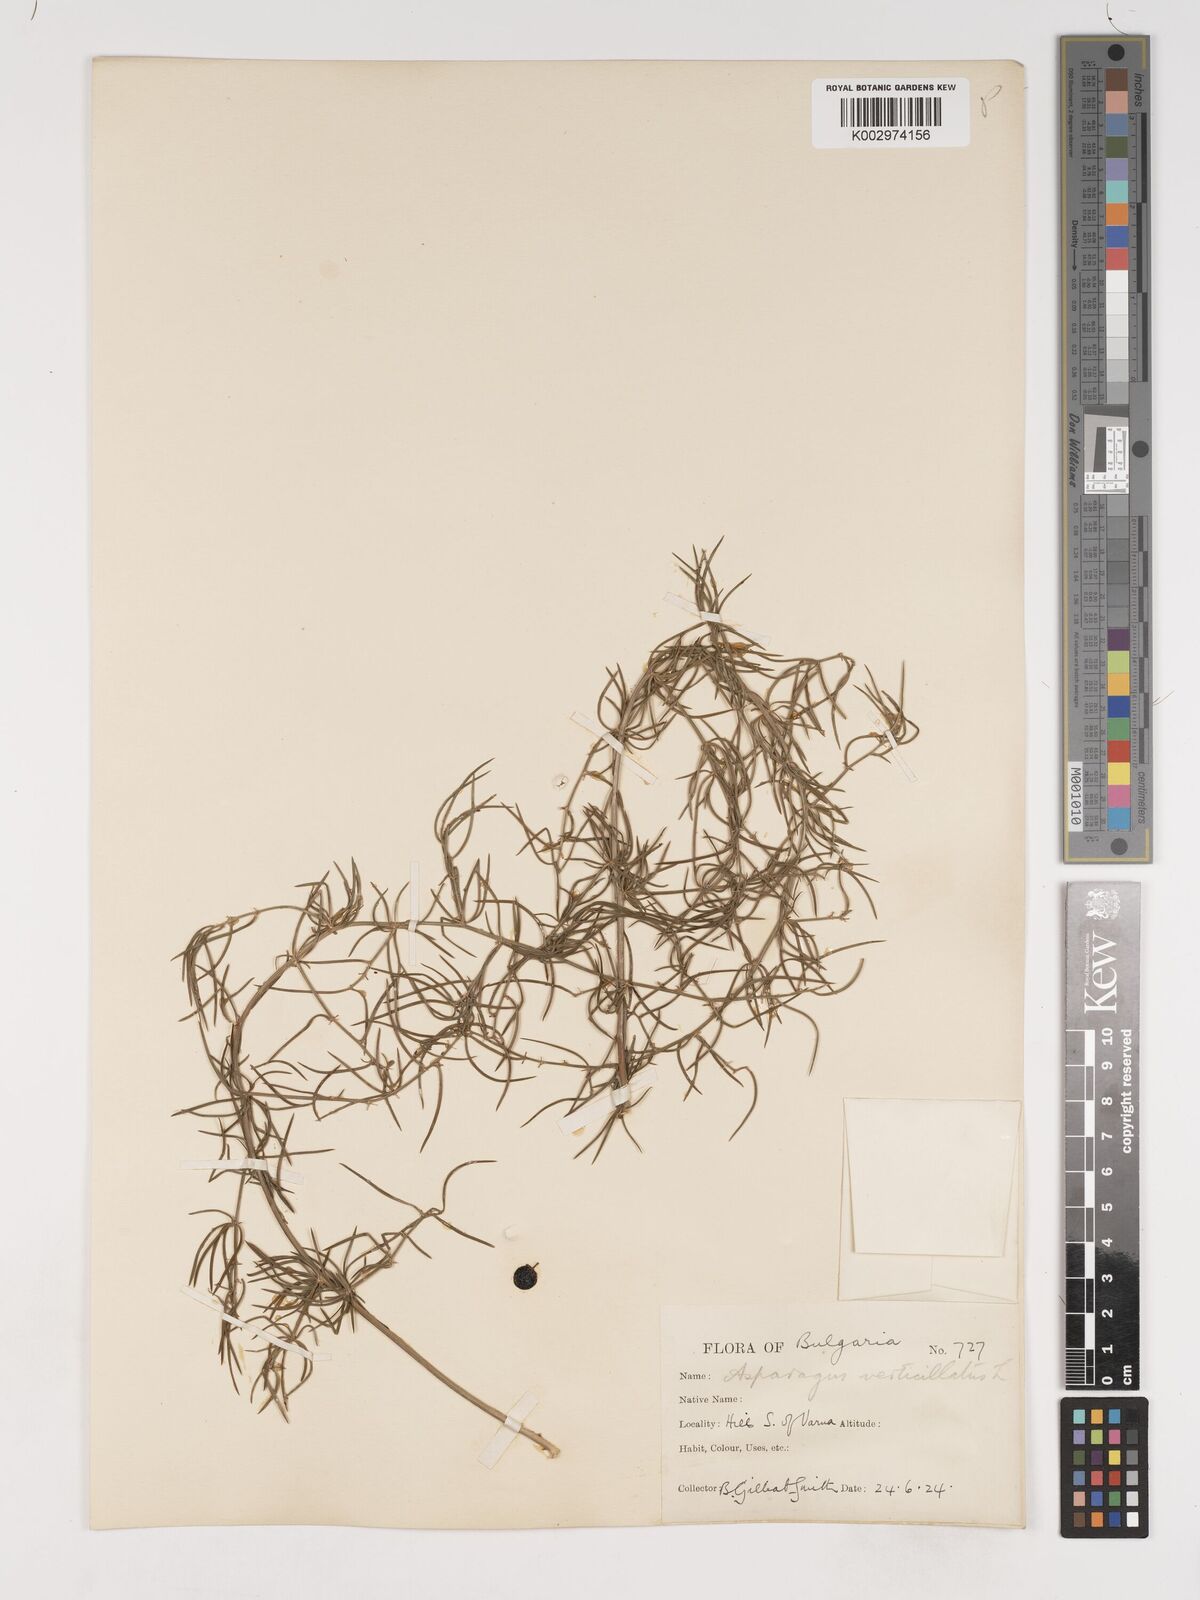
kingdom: Plantae
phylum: Tracheophyta
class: Liliopsida
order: Asparagales
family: Asparagaceae
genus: Asparagus
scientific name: Asparagus verticillatus
